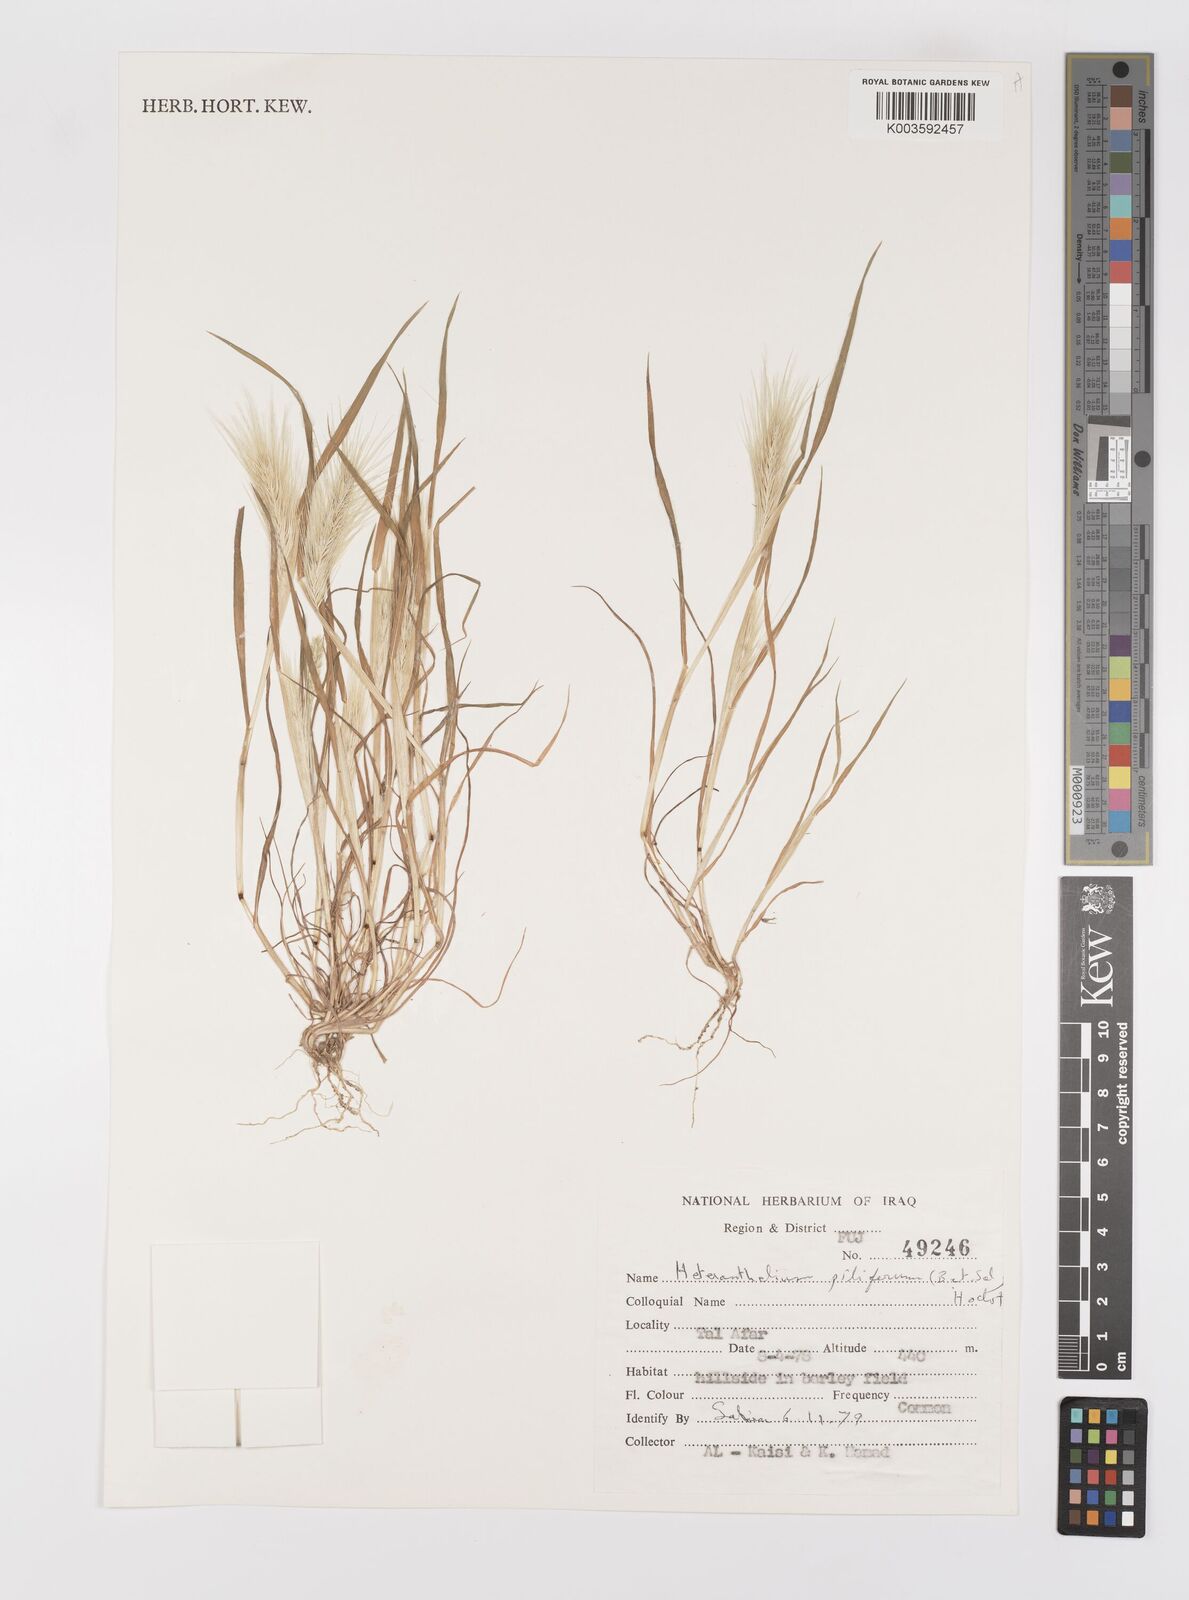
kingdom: Plantae
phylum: Tracheophyta
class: Liliopsida
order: Poales
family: Poaceae
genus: Heteranthelium
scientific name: Heteranthelium piliferum
